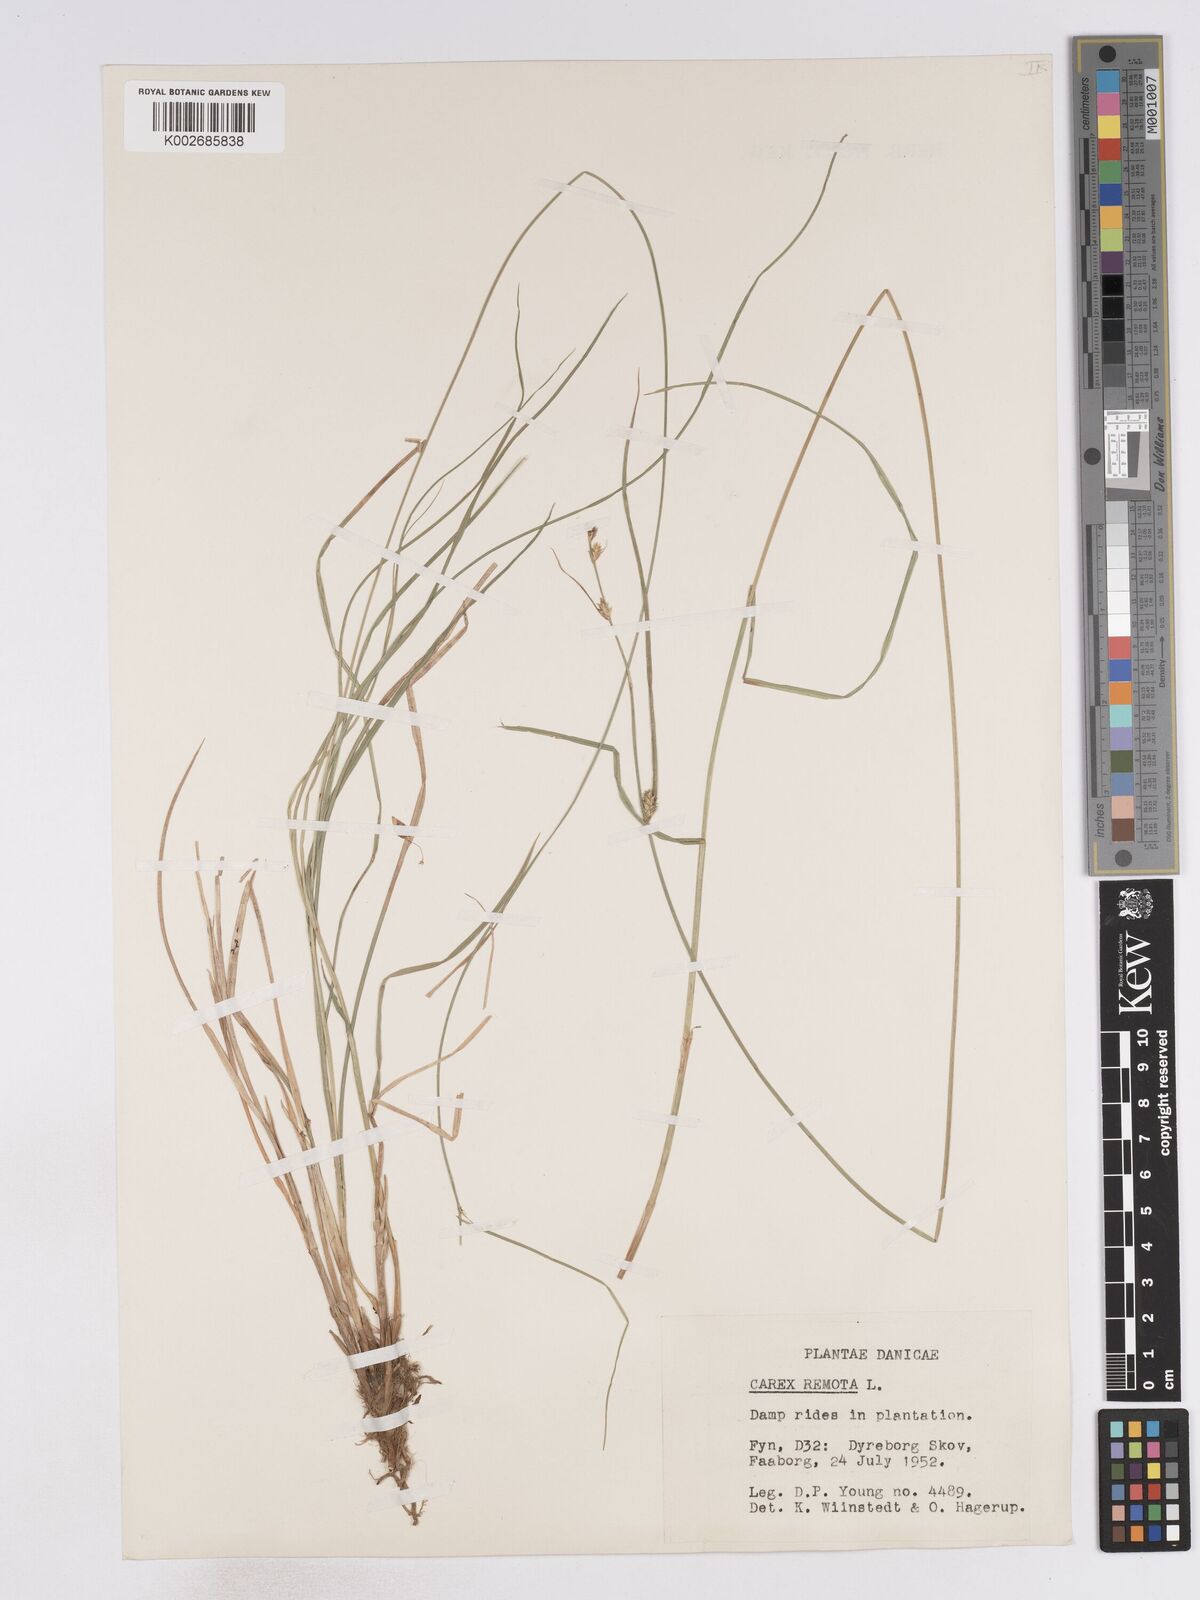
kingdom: Plantae
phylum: Tracheophyta
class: Liliopsida
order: Poales
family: Cyperaceae
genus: Carex
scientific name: Carex remota
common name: Remote sedge
